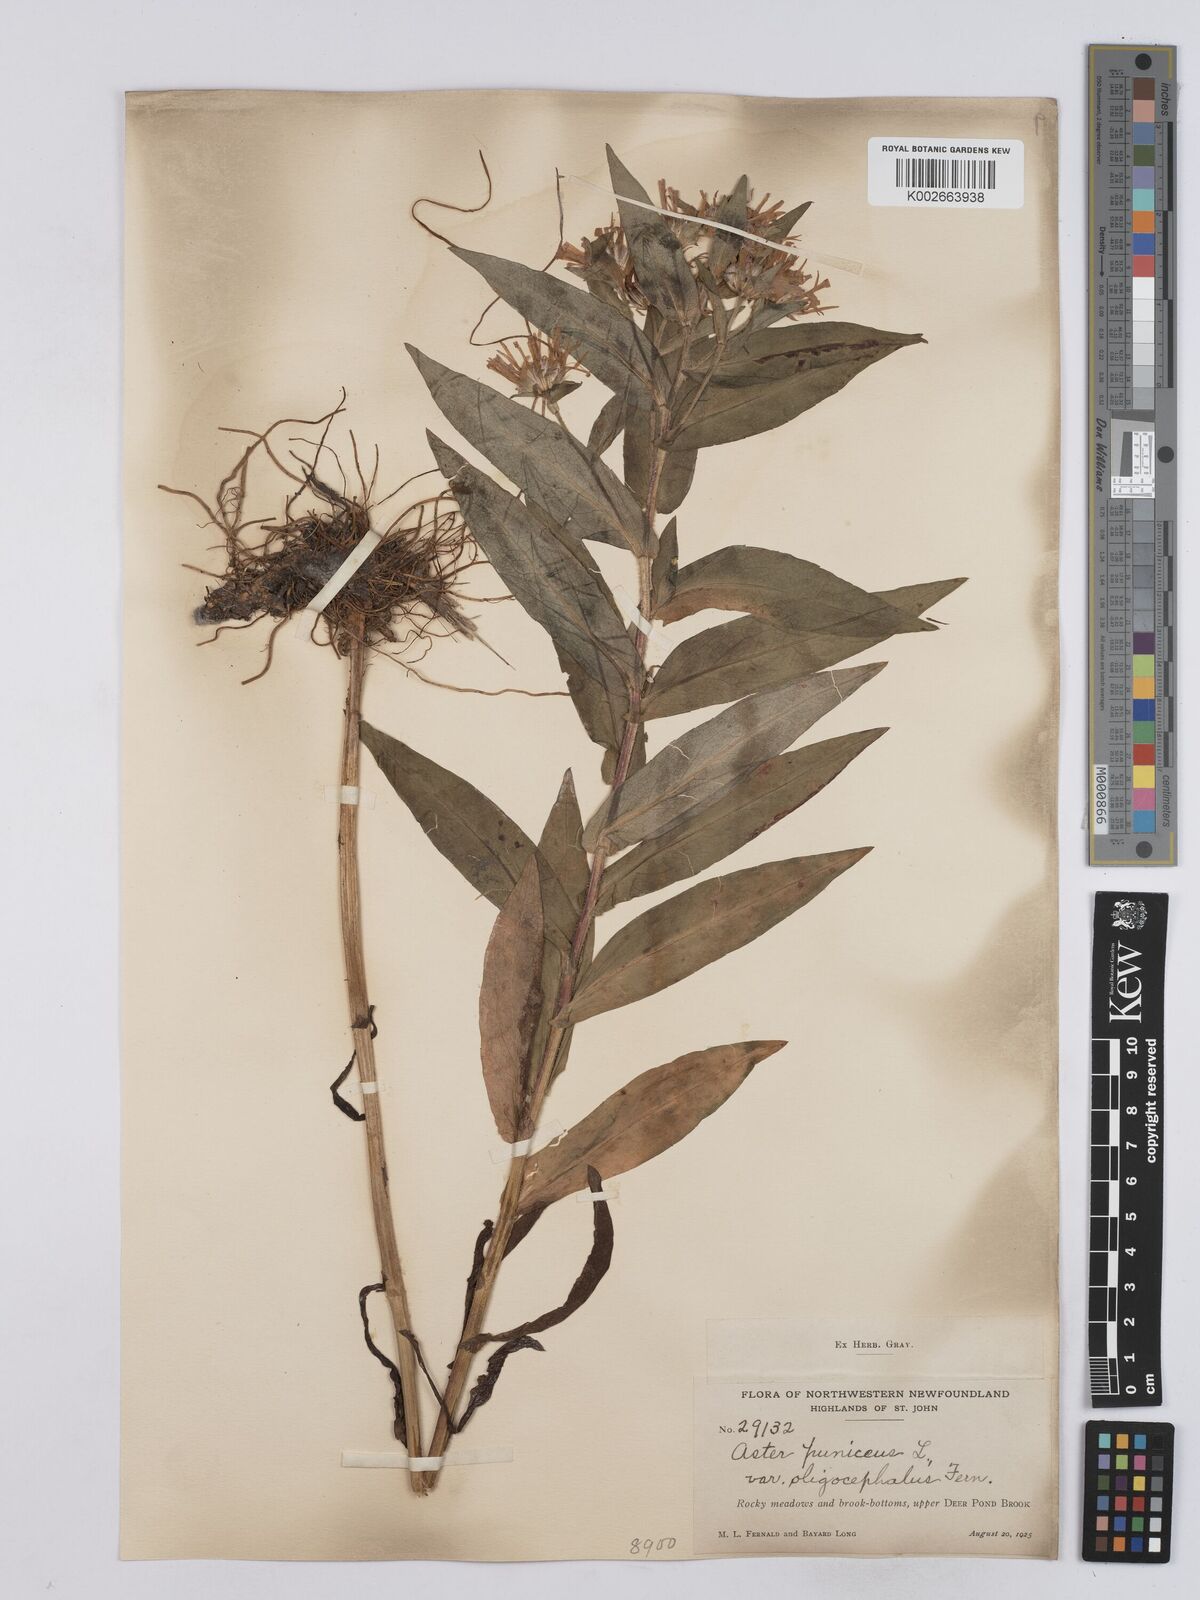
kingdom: Plantae
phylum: Tracheophyta
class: Magnoliopsida
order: Asterales
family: Asteraceae
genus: Symphyotrichum
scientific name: Symphyotrichum puniceum
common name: Bog aster
